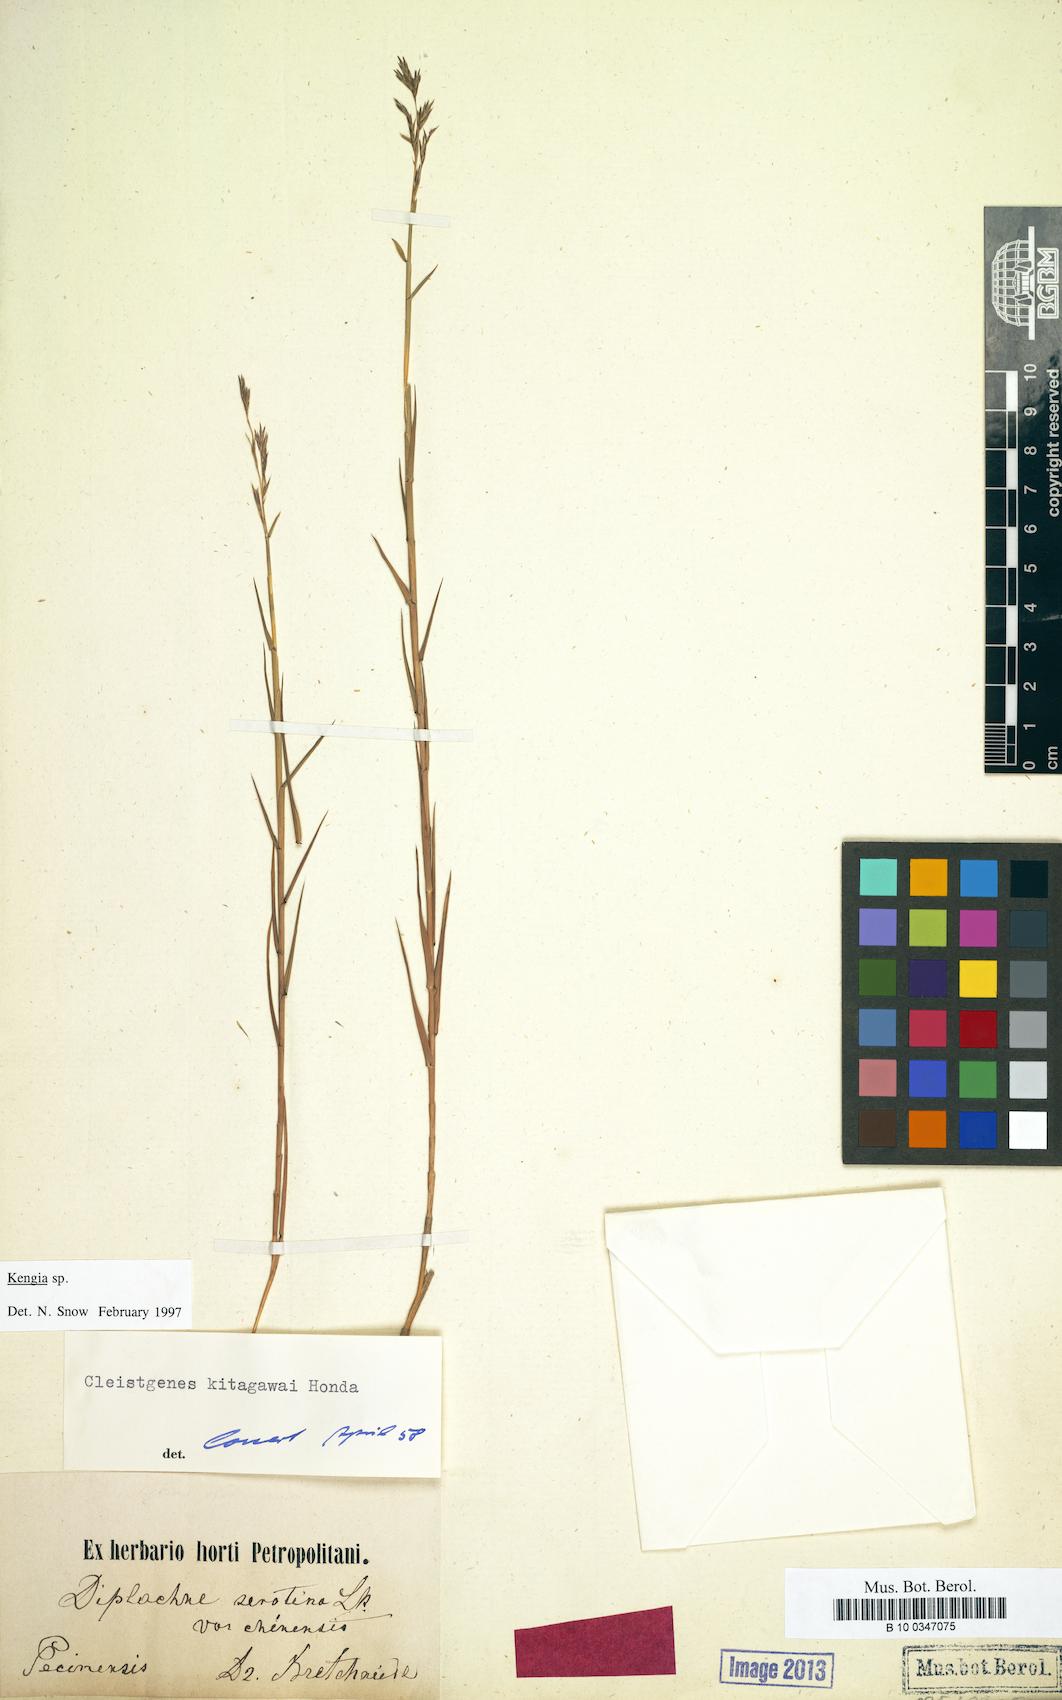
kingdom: Plantae
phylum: Tracheophyta
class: Liliopsida
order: Poales
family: Poaceae
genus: Cleistogenes
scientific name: Cleistogenes hackelii
